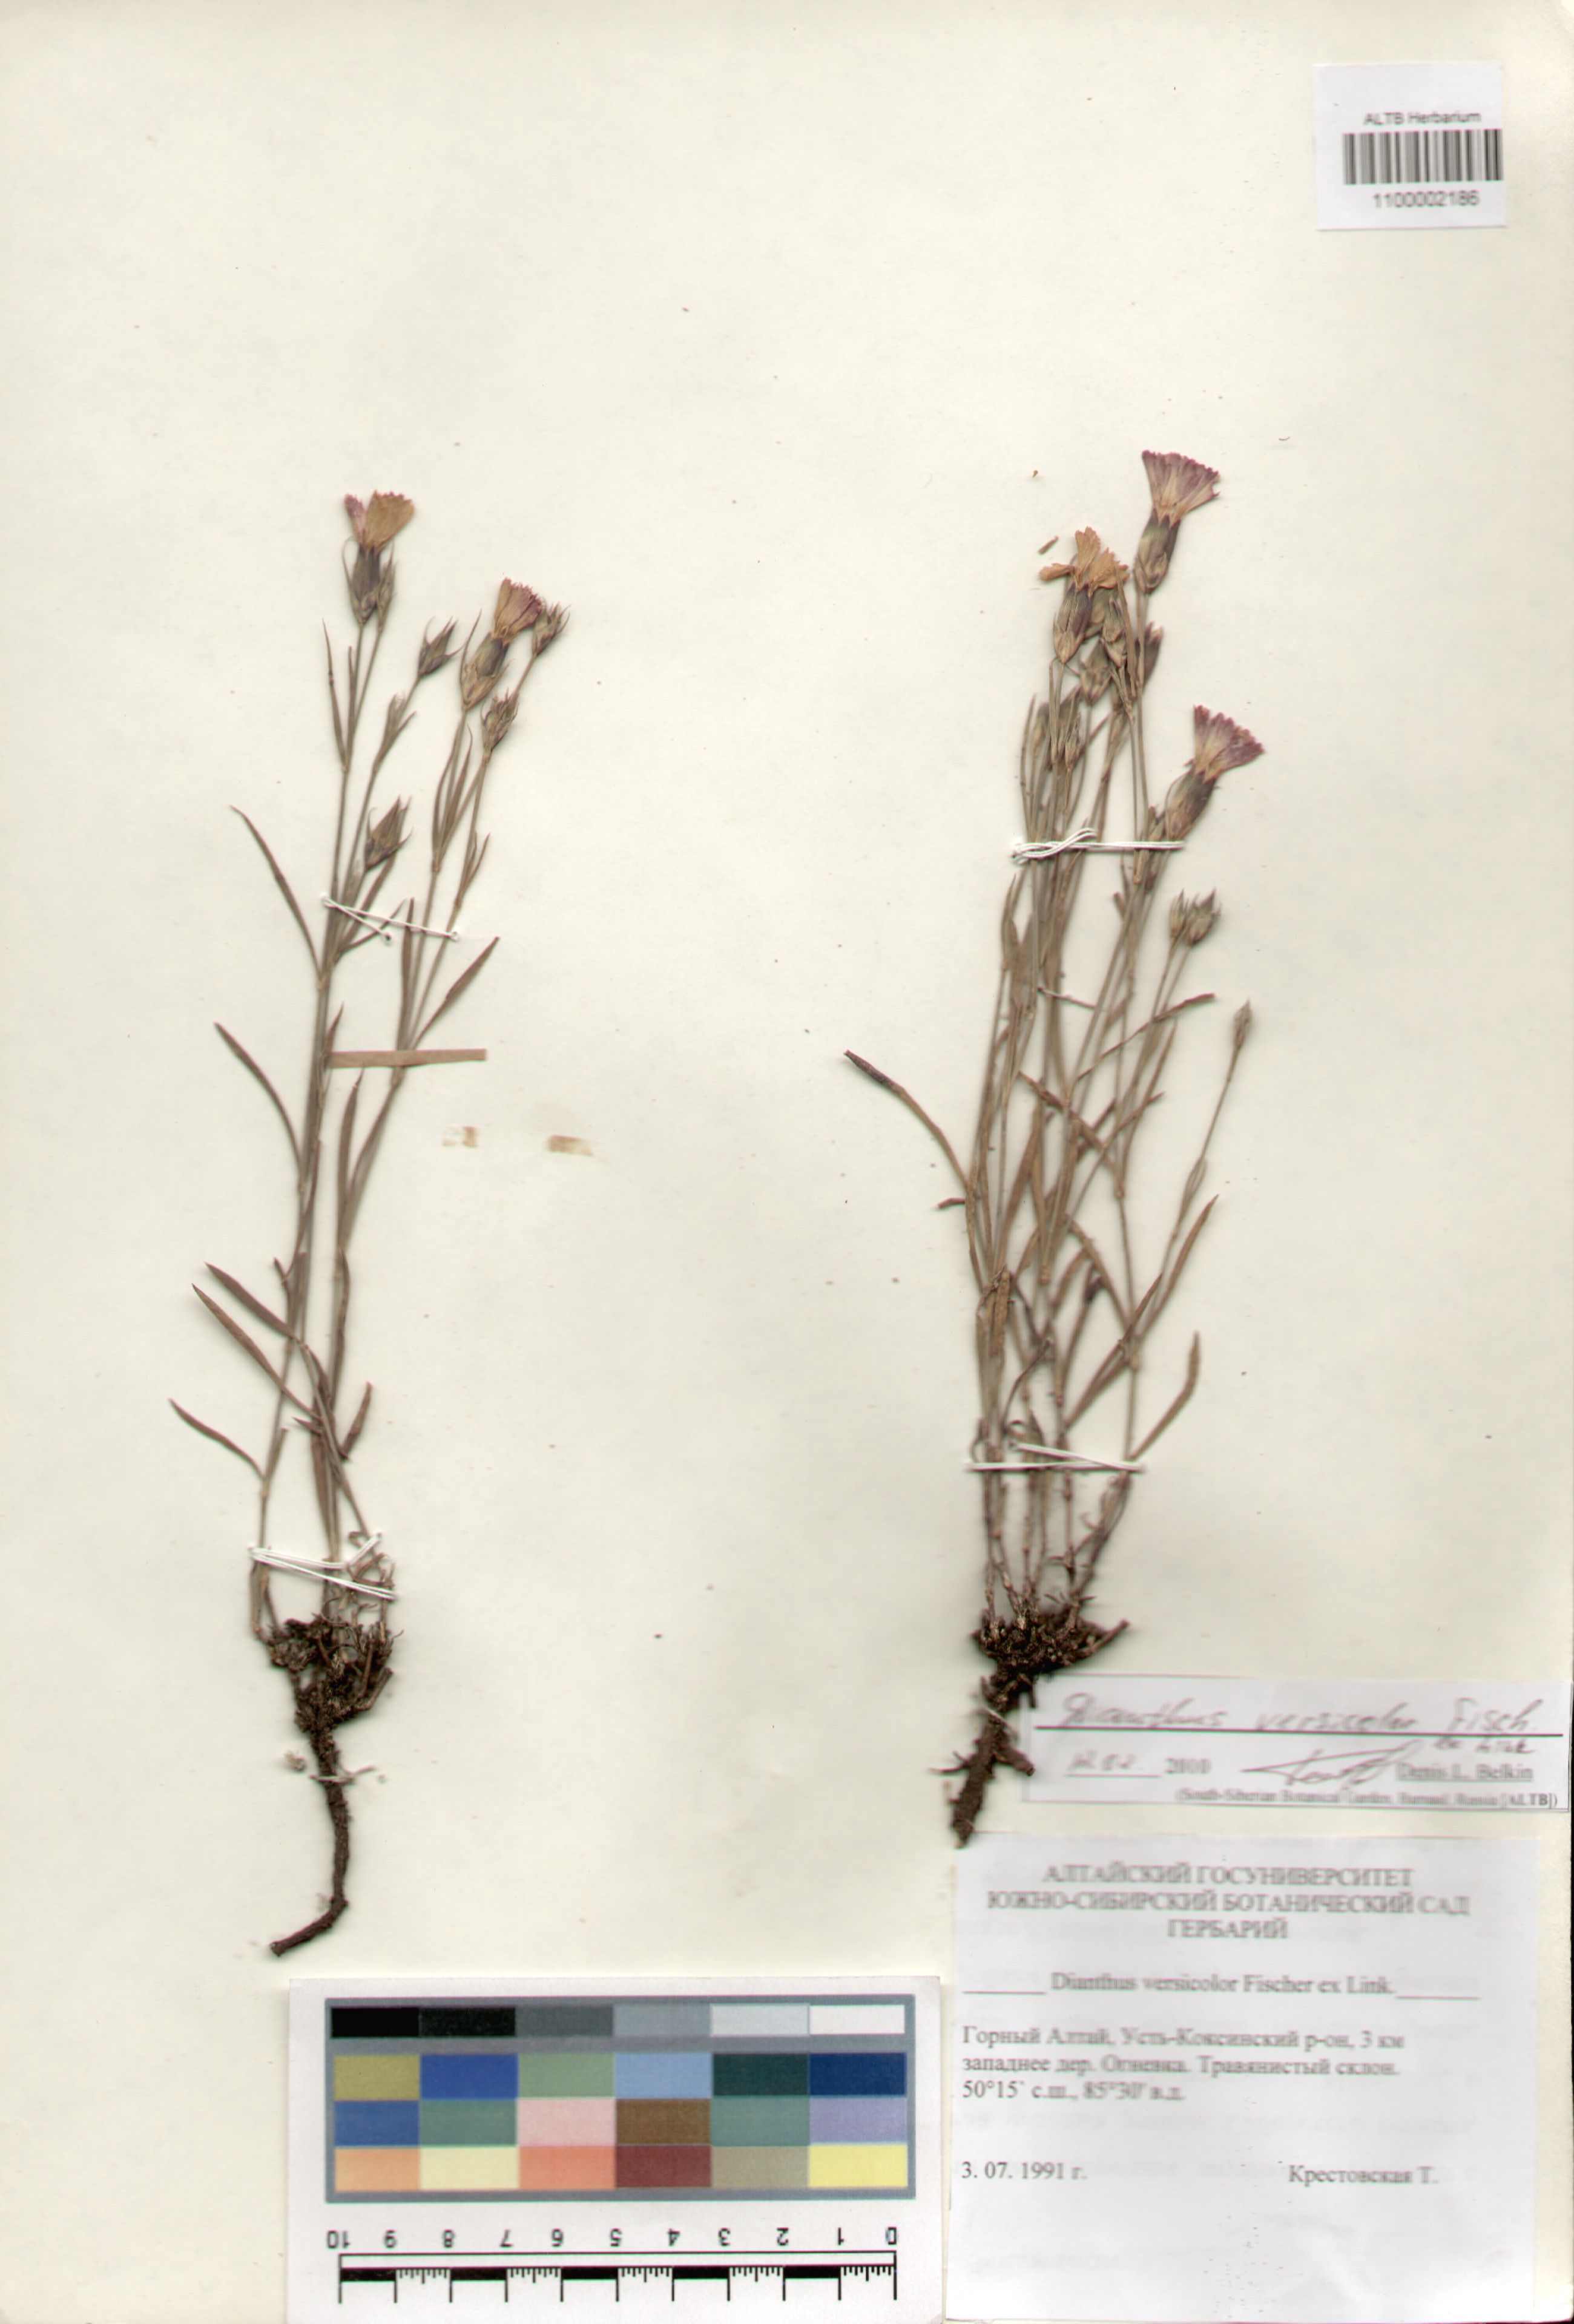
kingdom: Plantae
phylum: Tracheophyta
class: Magnoliopsida
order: Caryophyllales
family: Caryophyllaceae
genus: Dianthus
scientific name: Dianthus chinensis
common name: Rainbow pink
